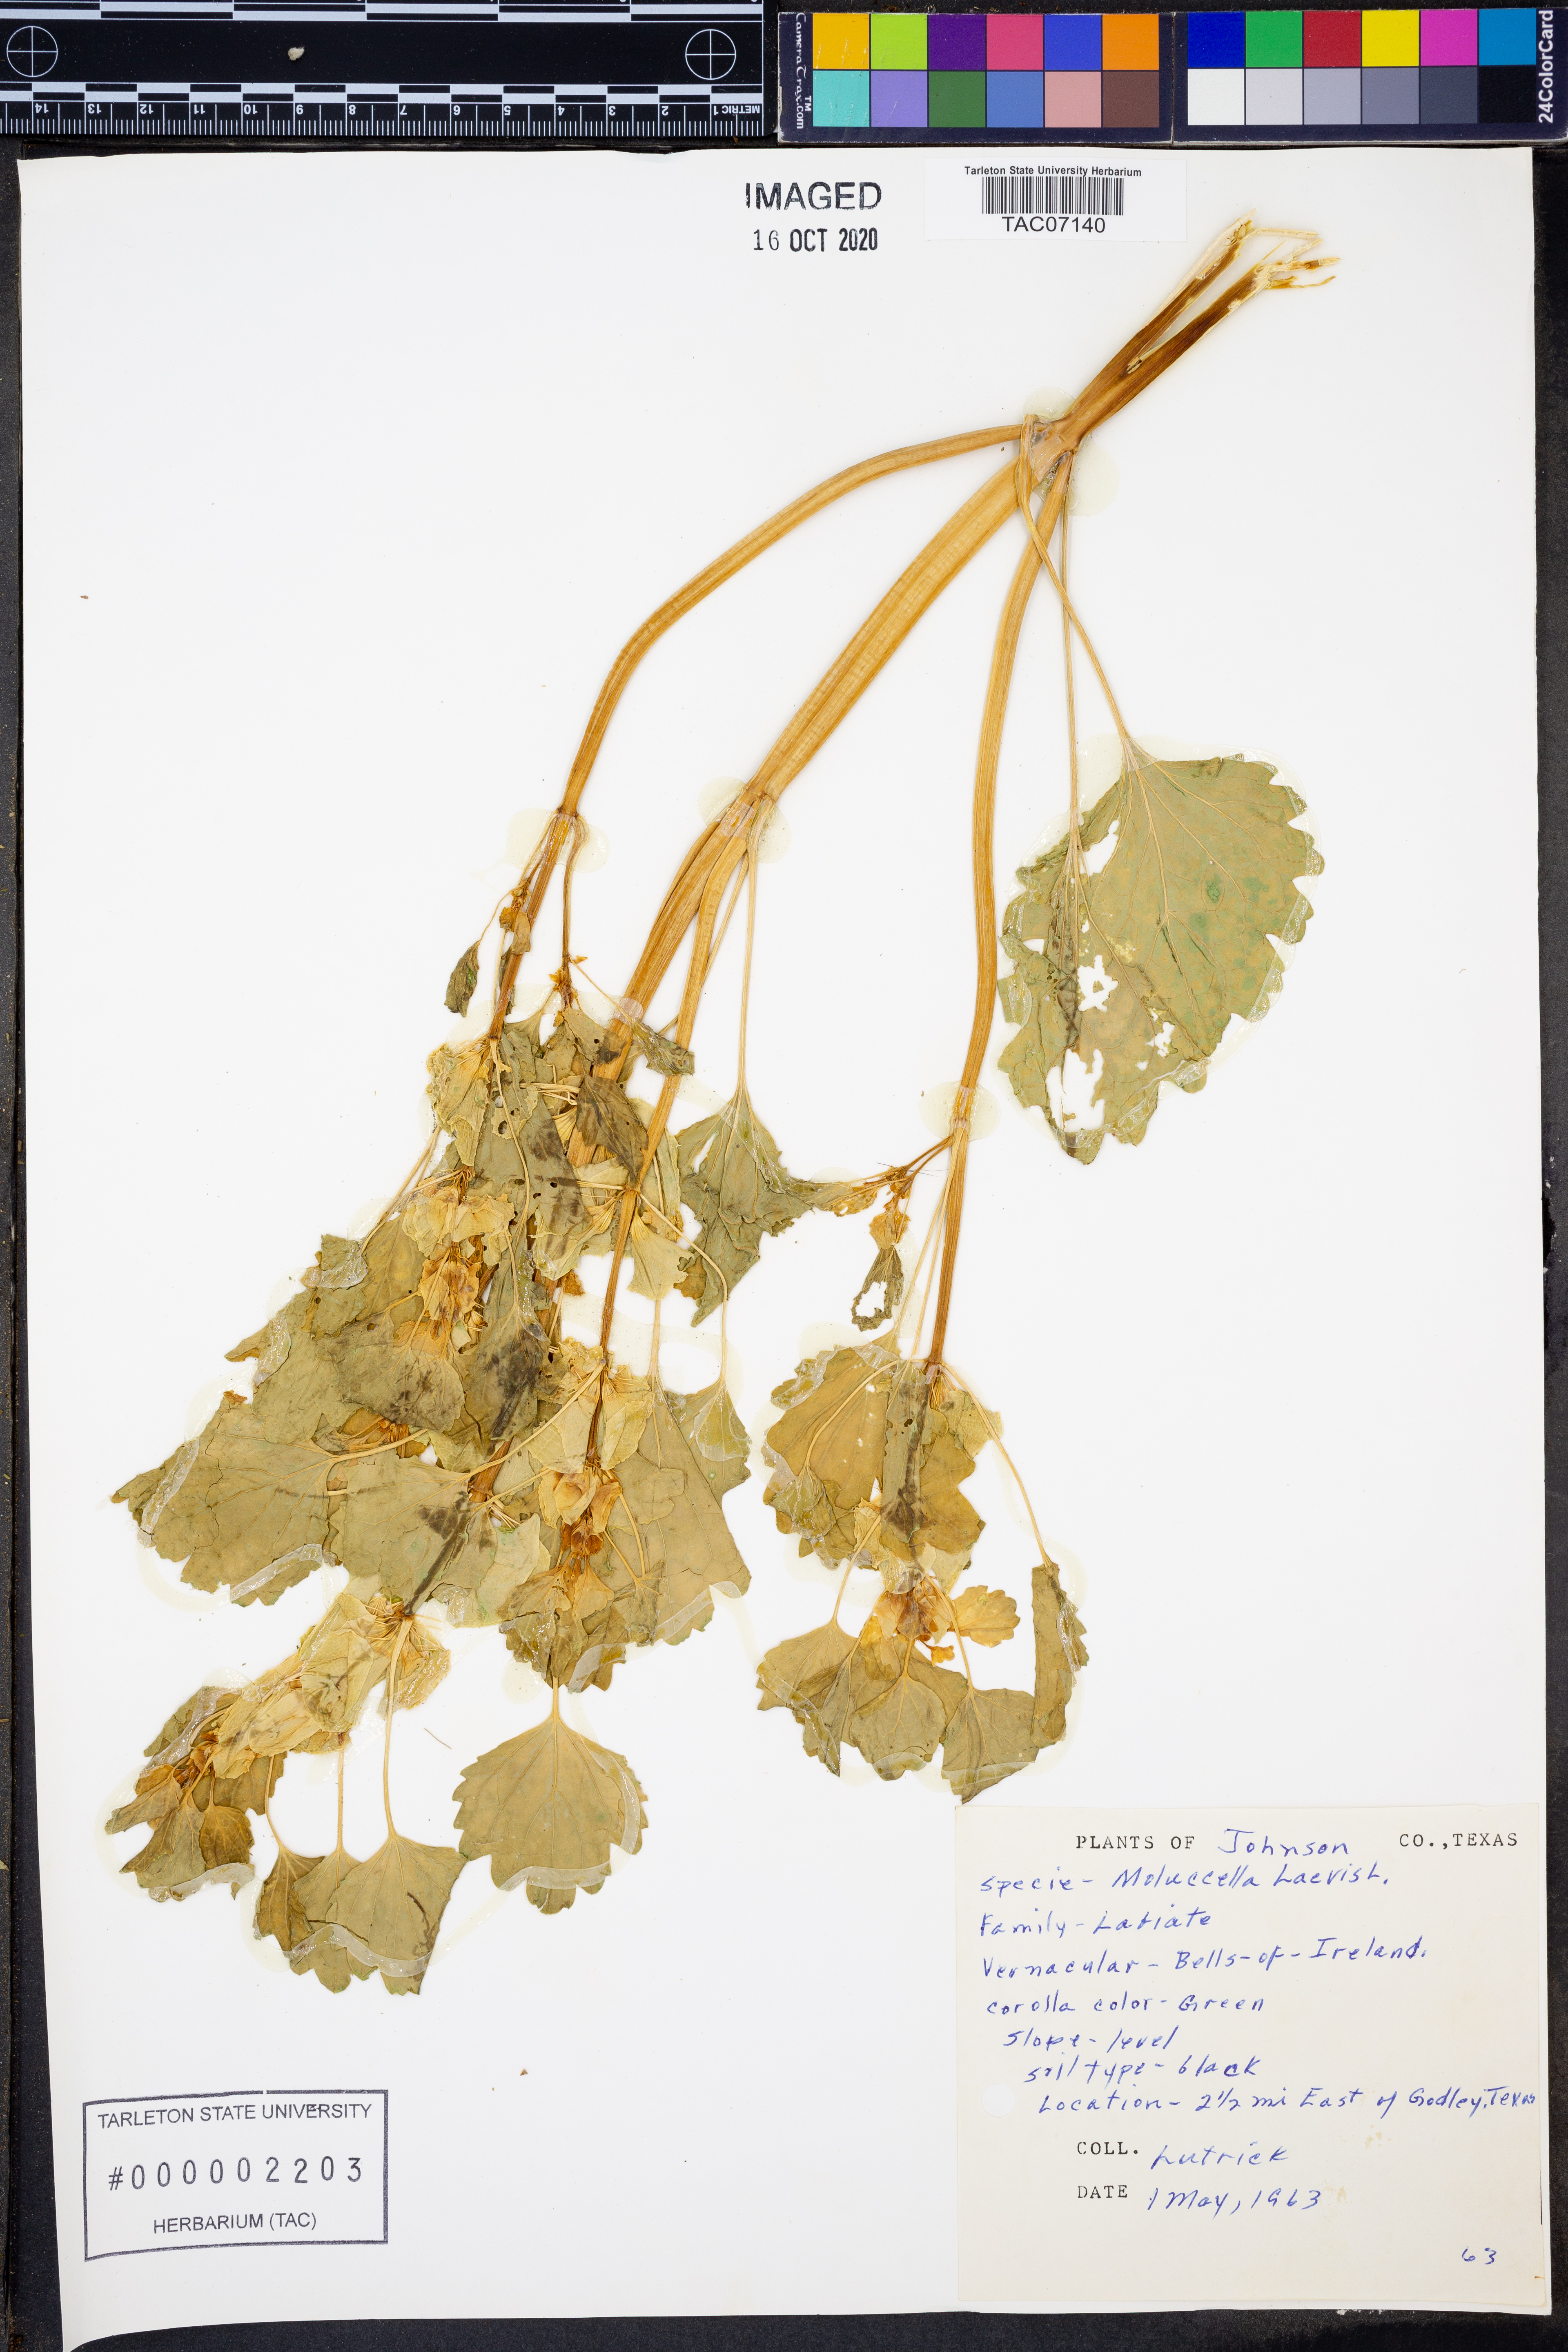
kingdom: Plantae
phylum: Tracheophyta
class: Magnoliopsida
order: Lamiales
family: Lamiaceae
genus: Moluccella
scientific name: Moluccella laevis
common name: Shellflower
